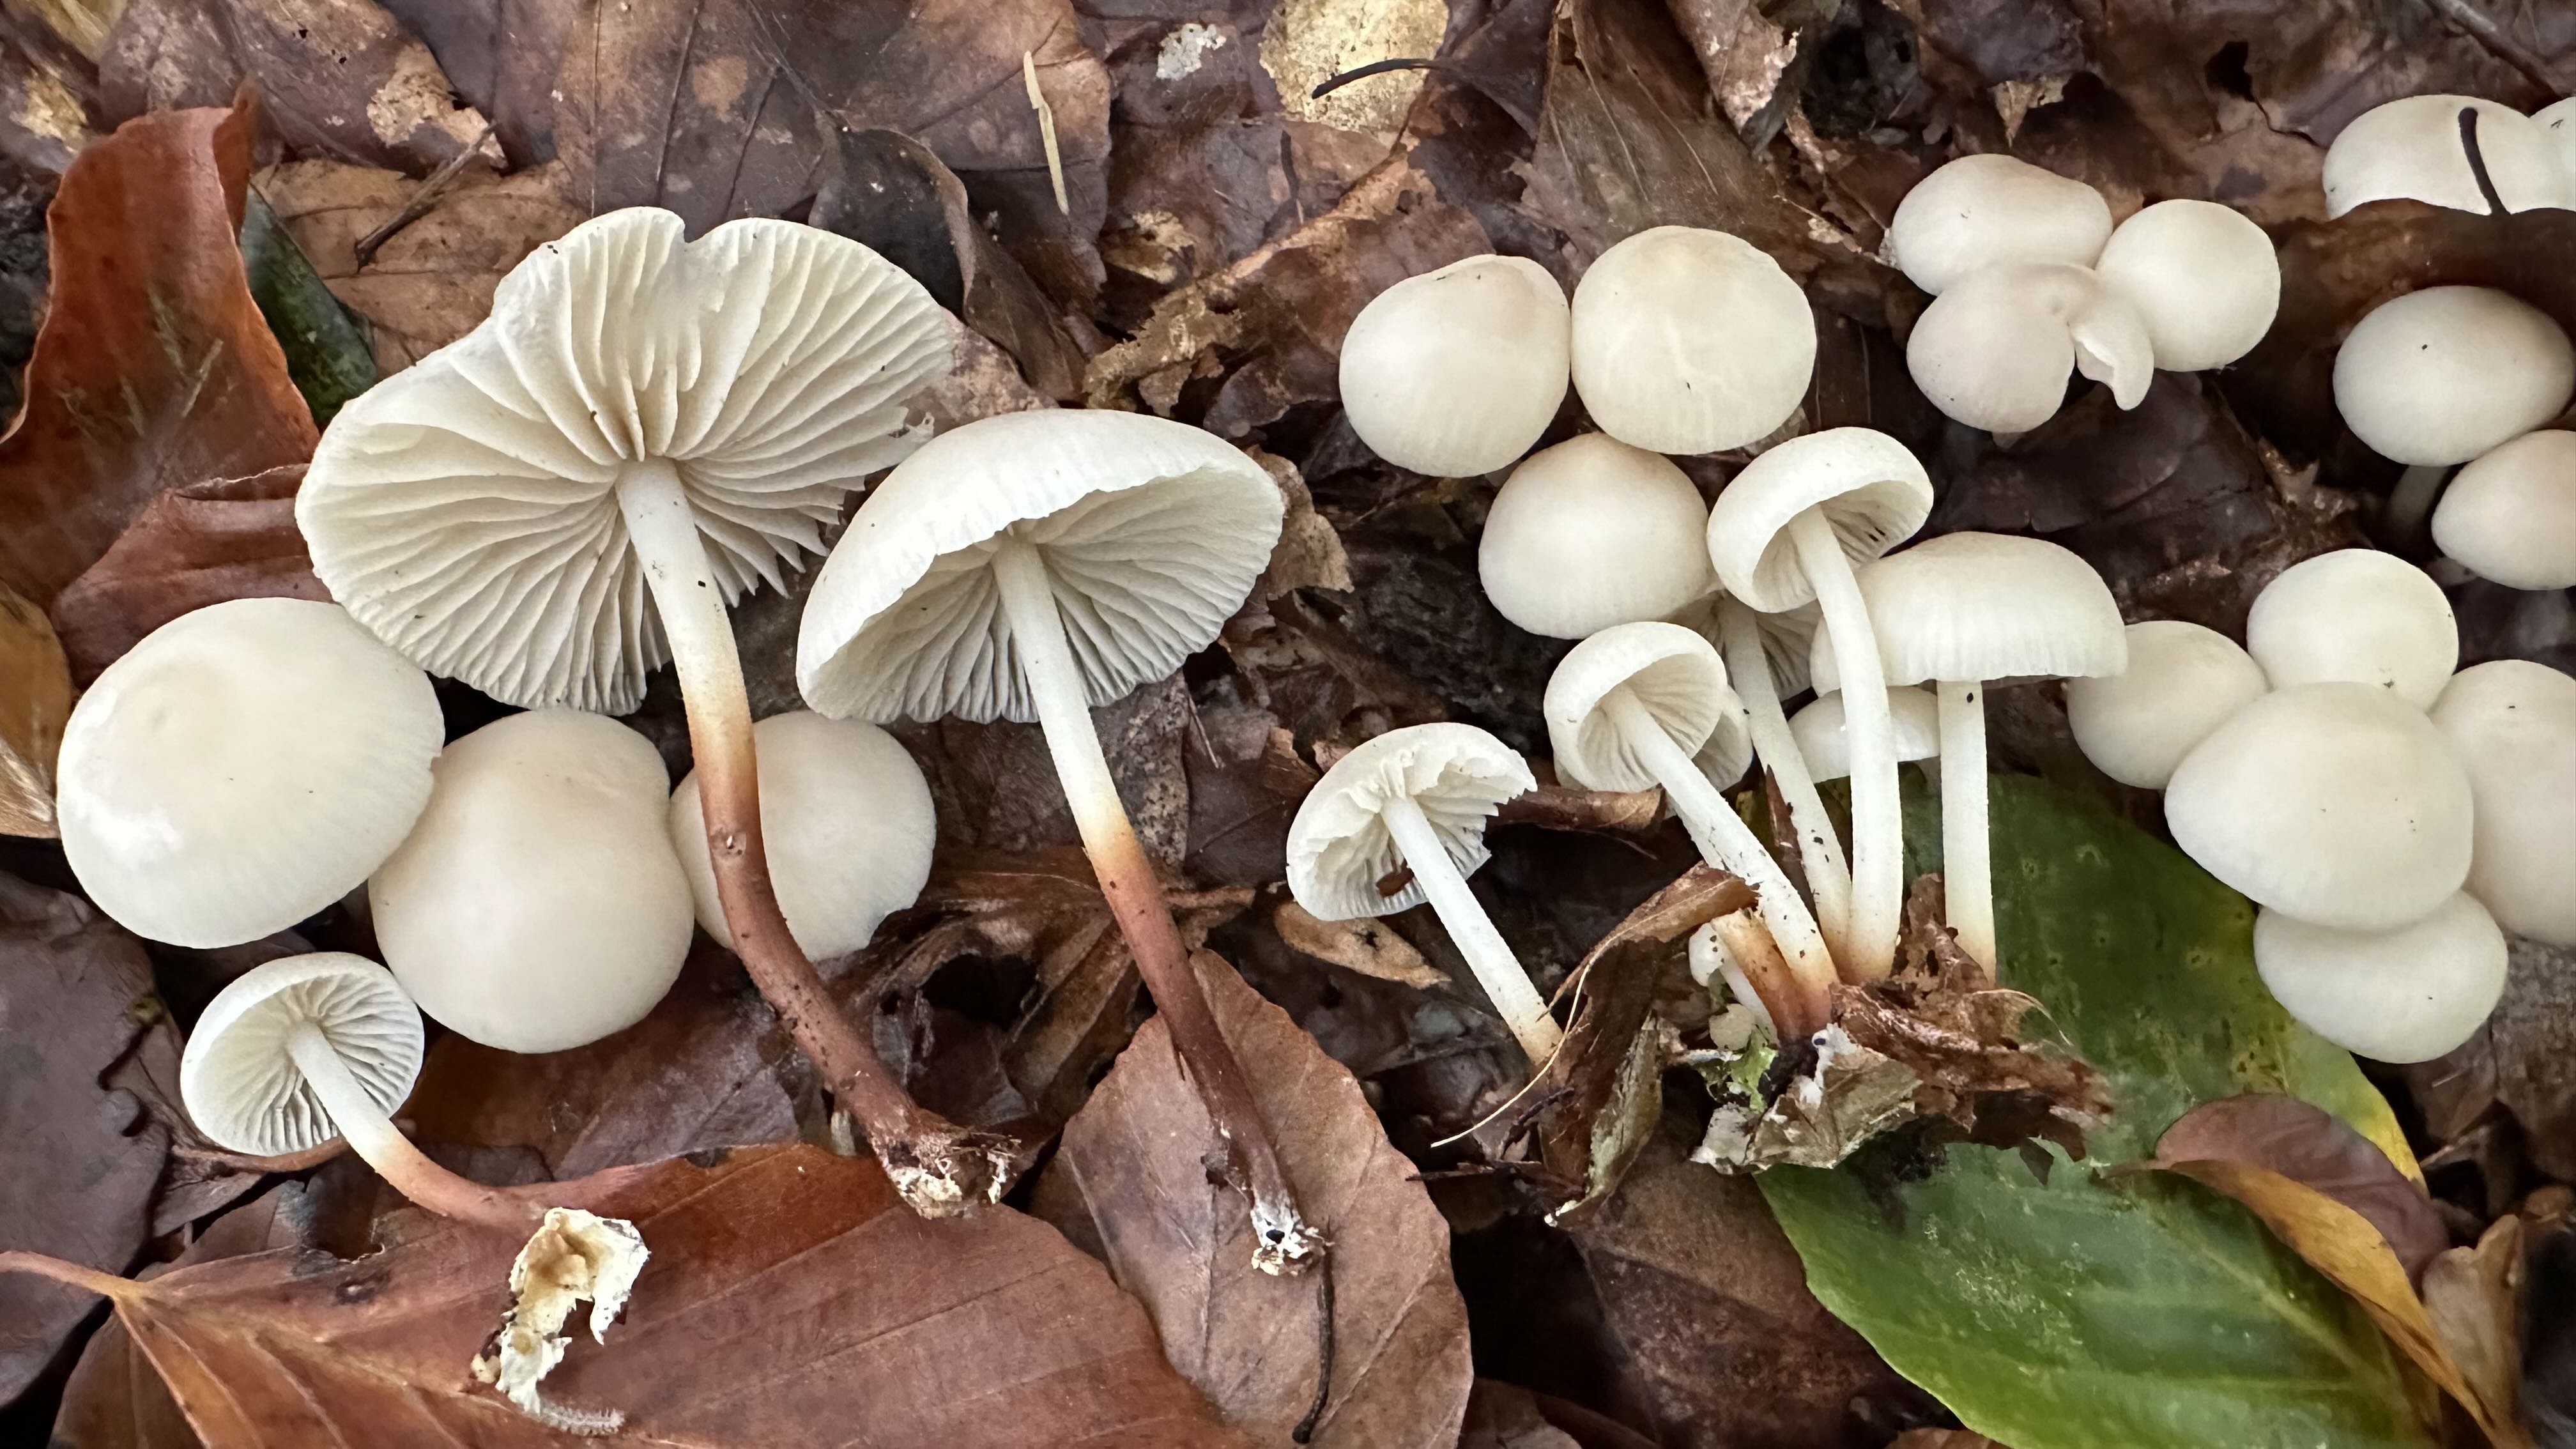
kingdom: Fungi
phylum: Basidiomycota
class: Agaricomycetes
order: Agaricales
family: Marasmiaceae
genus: Marasmius
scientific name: Marasmius wynneae
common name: hvælvet bruskhat
